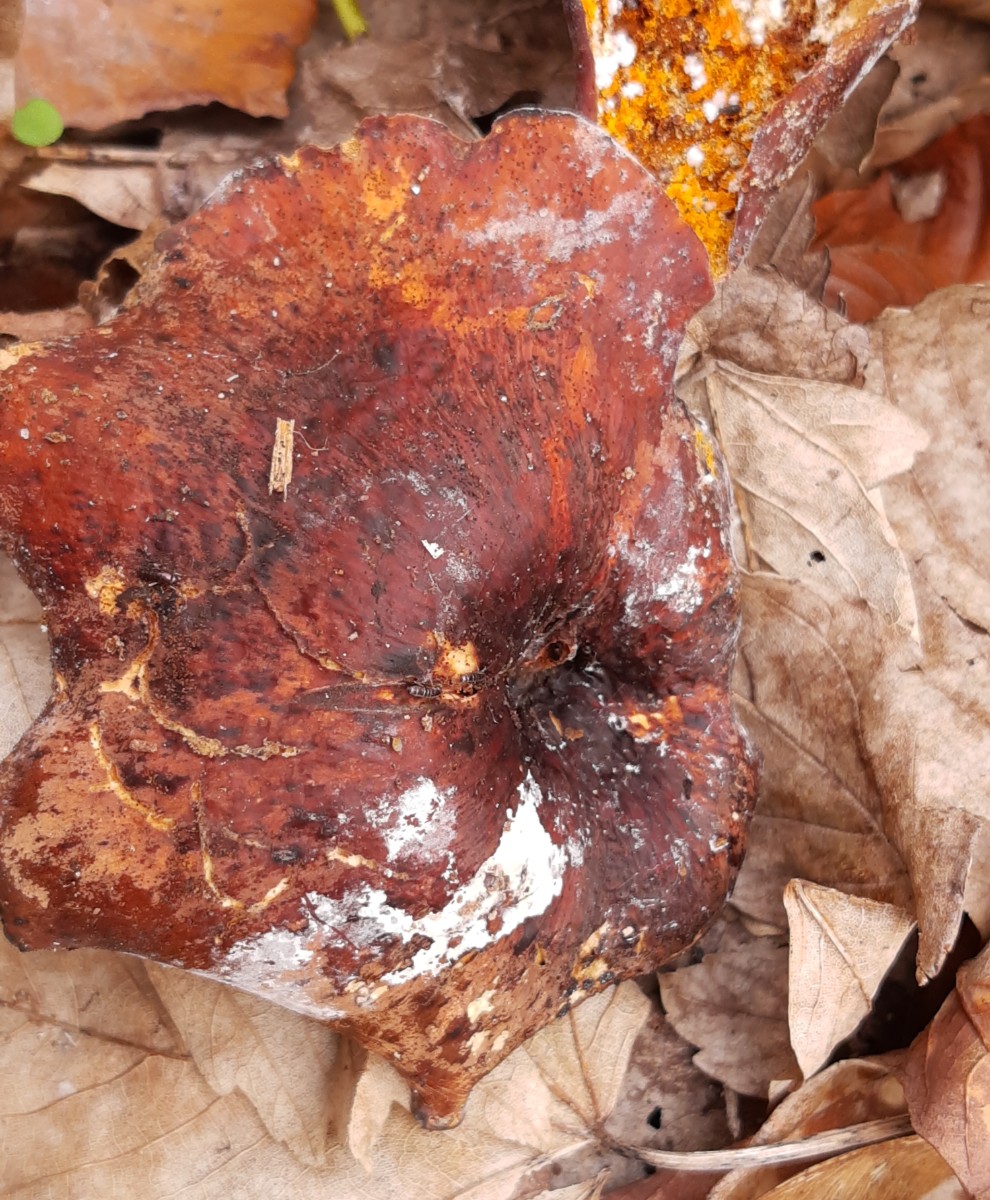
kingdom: Fungi
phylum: Ascomycota
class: Sordariomycetes
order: Hypocreales
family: Hypocreaceae
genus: Hypomyces
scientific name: Hypomyces aurantius
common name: almindelig snylteskorpe
